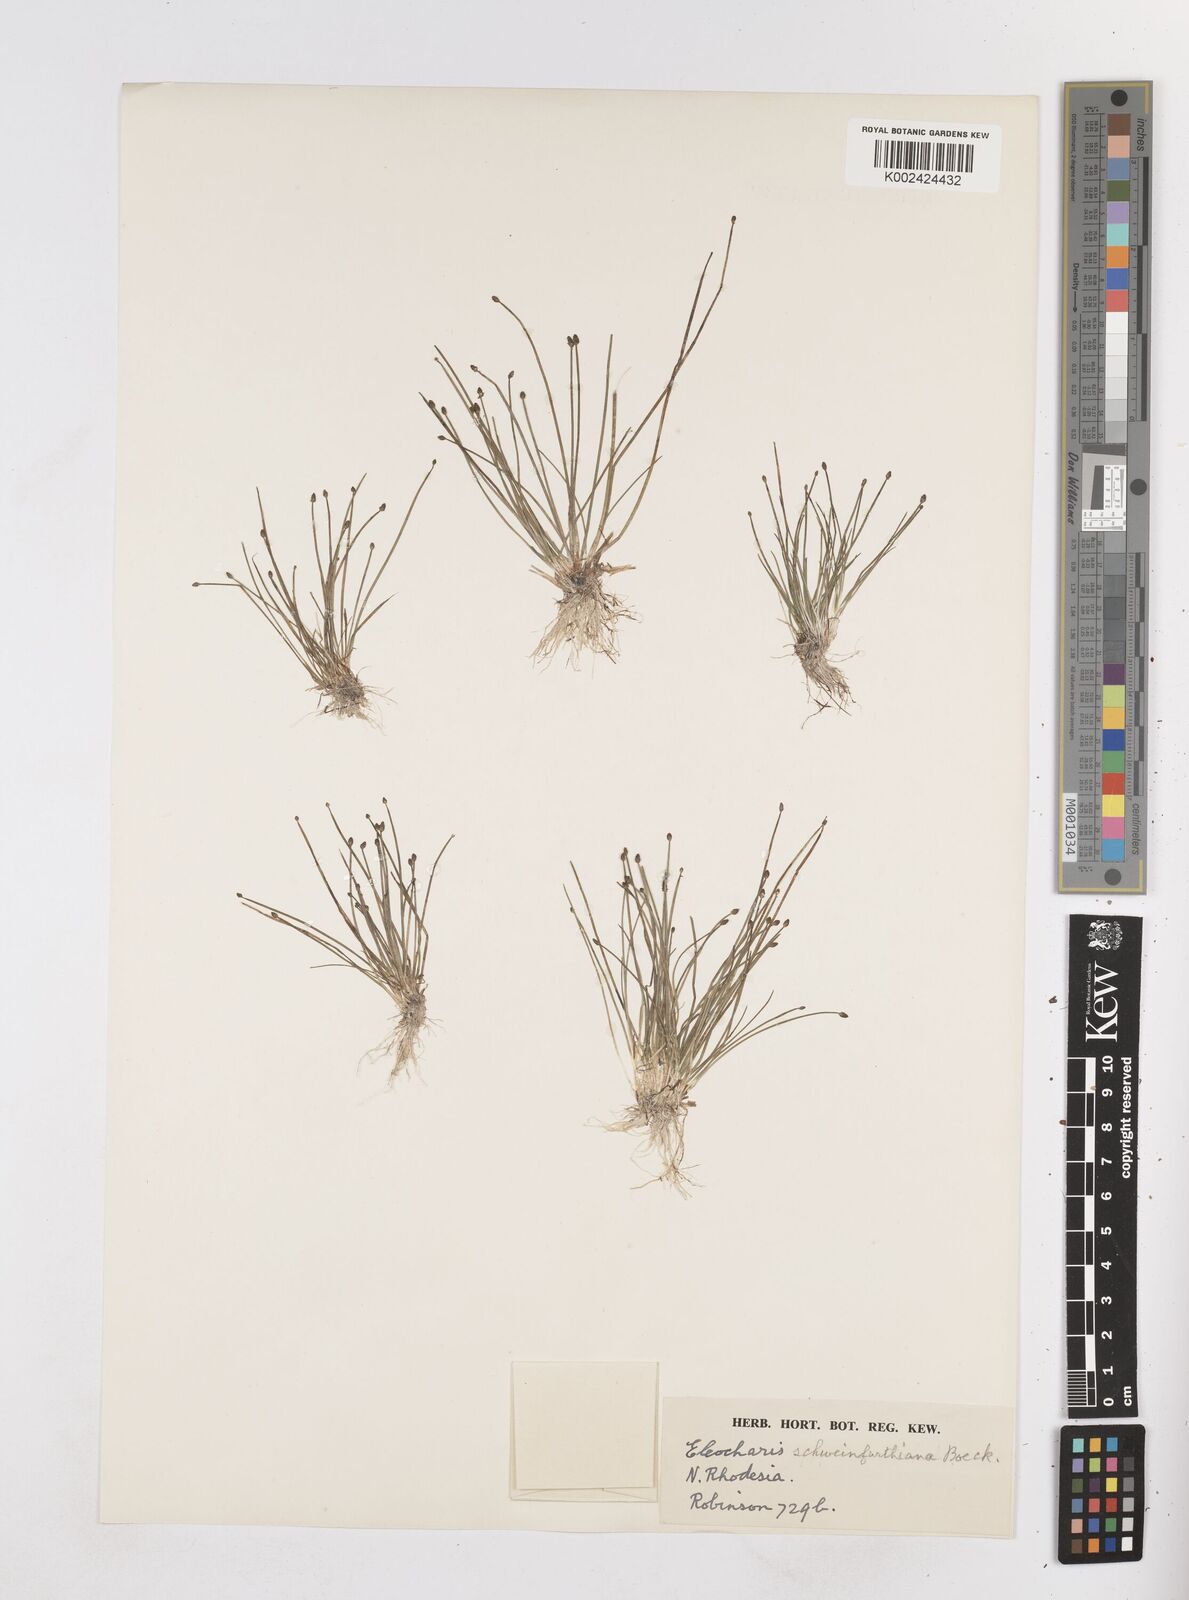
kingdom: Plantae
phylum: Tracheophyta
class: Liliopsida
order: Poales
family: Cyperaceae
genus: Eleocharis
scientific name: Eleocharis setifolia
